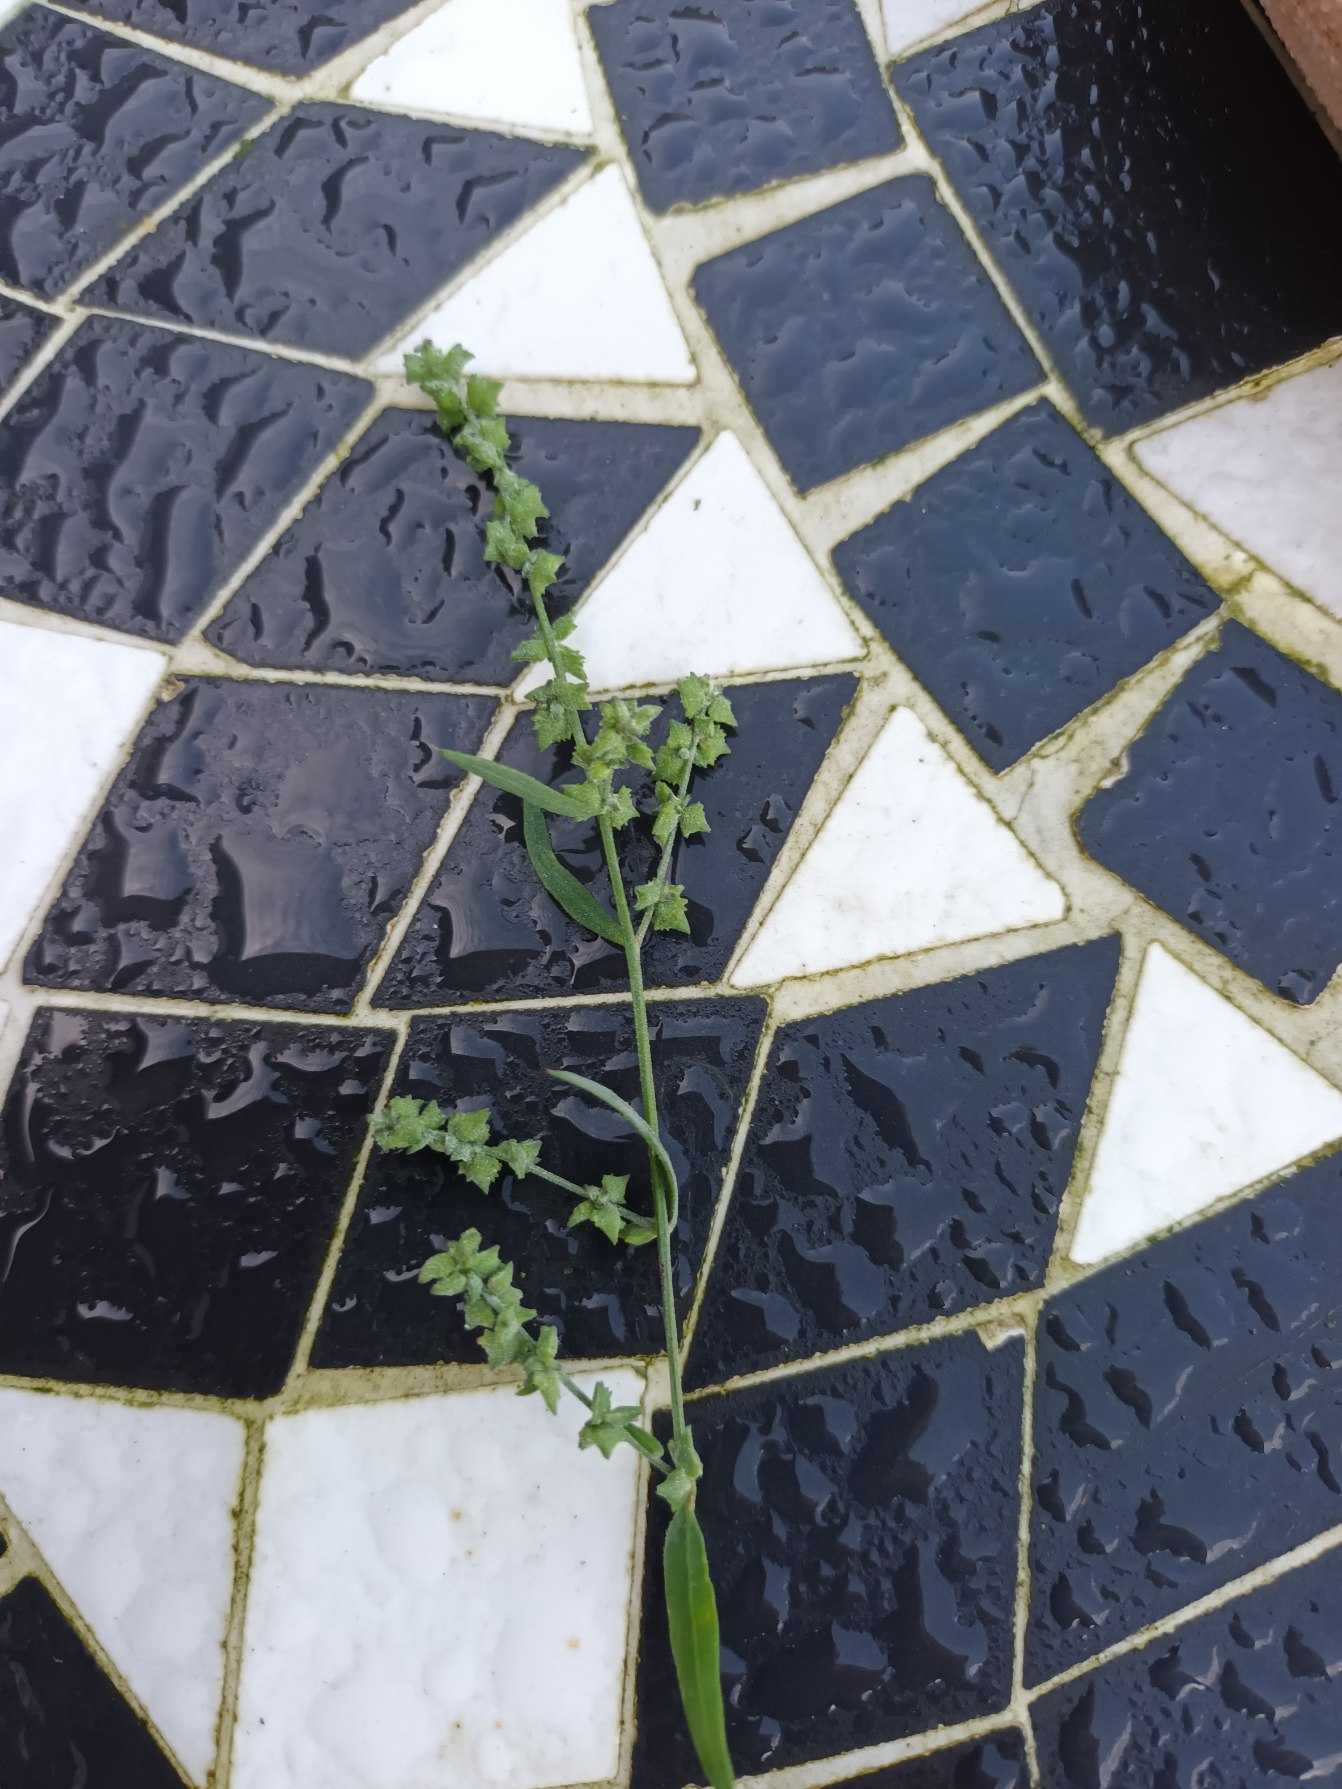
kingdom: Plantae
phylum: Tracheophyta
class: Magnoliopsida
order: Caryophyllales
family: Amaranthaceae
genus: Atriplex
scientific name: Atriplex patula
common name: Svine-mælde
